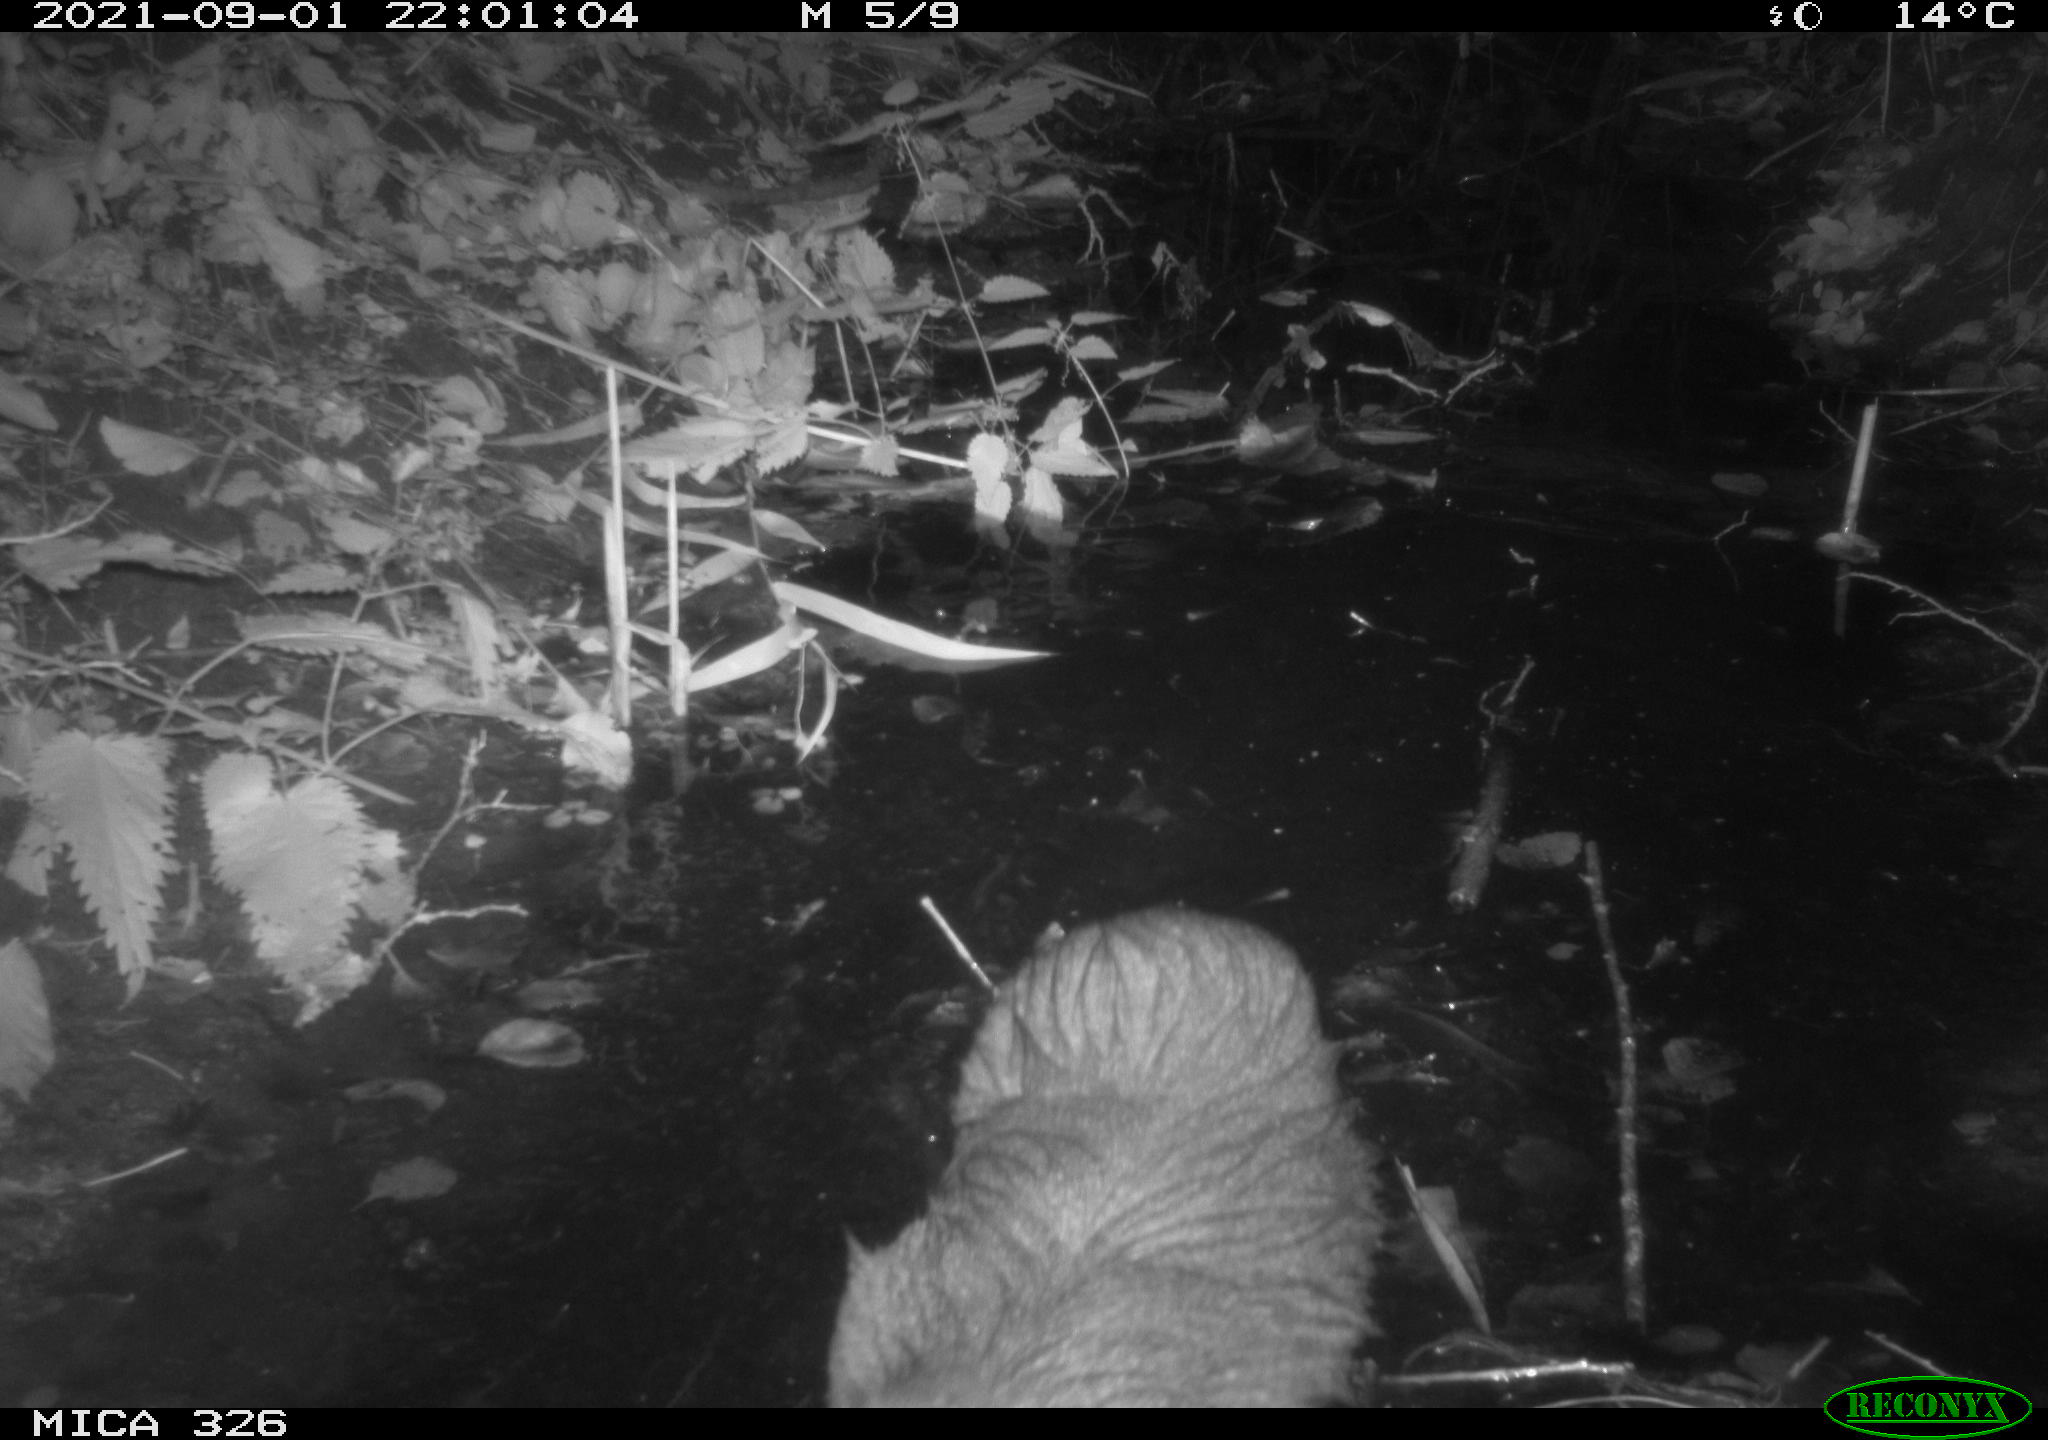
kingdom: Animalia
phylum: Chordata
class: Mammalia
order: Rodentia
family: Myocastoridae
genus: Myocastor
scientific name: Myocastor coypus
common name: Coypu
